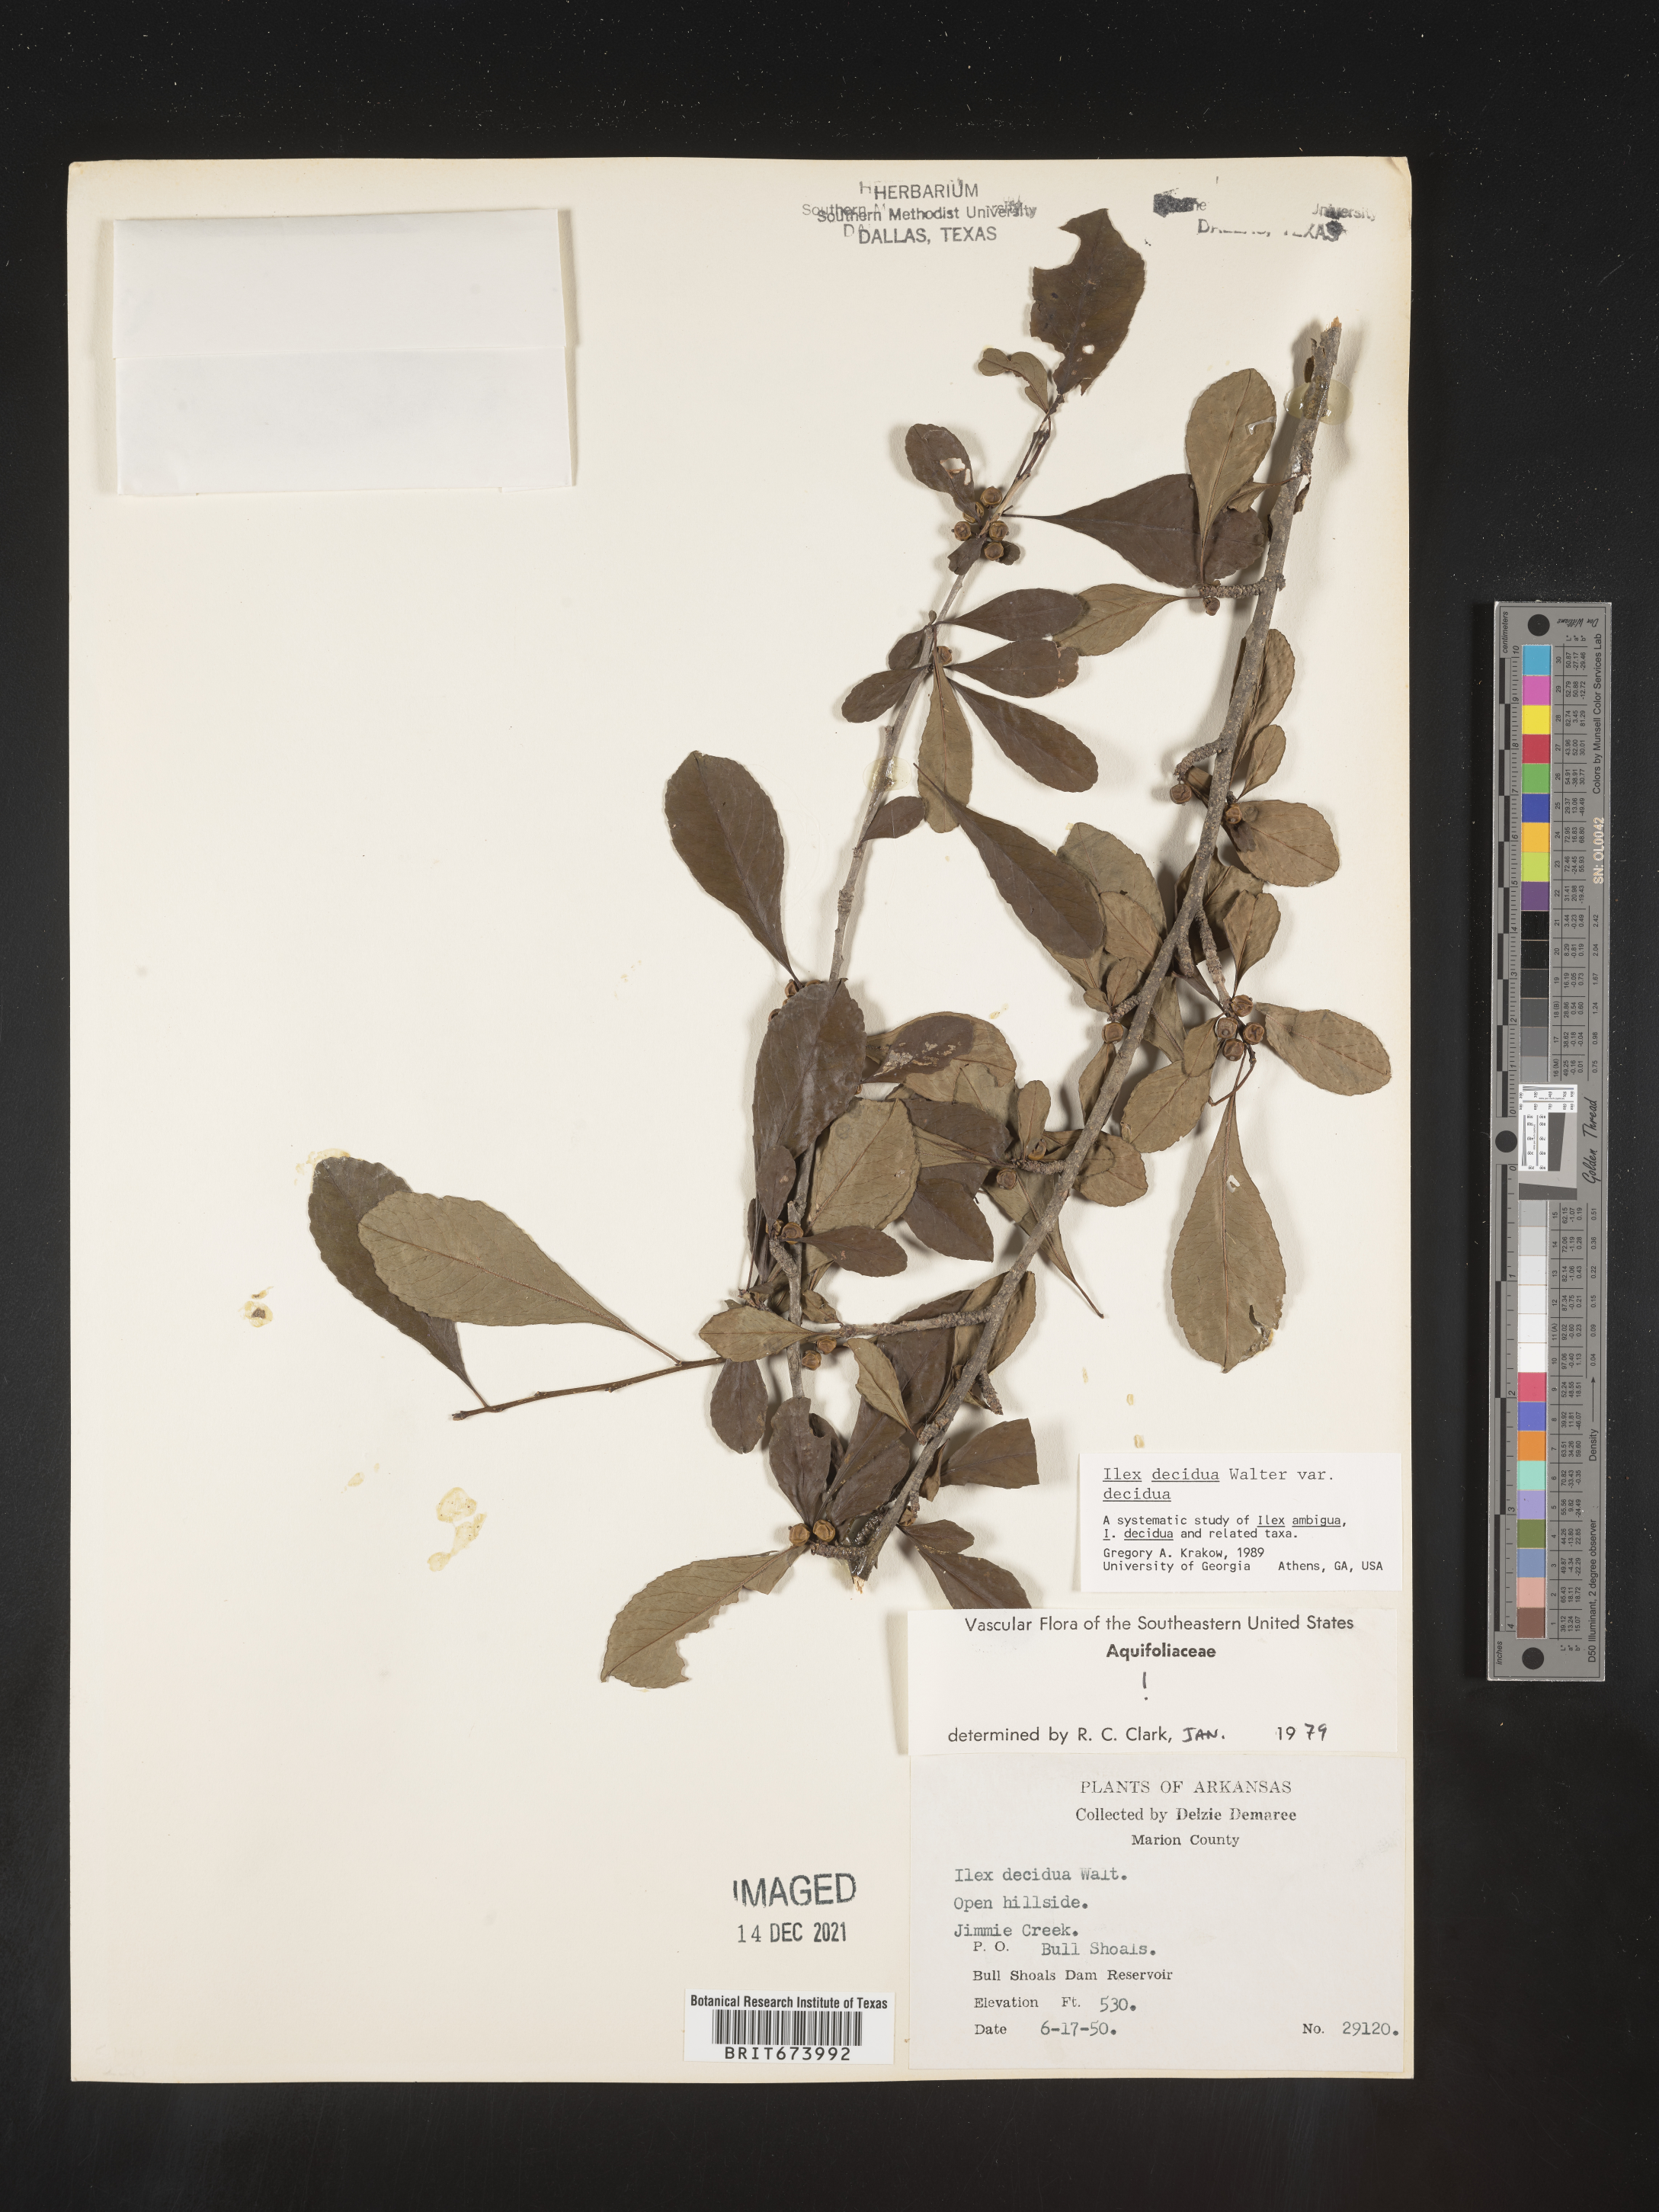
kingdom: Plantae
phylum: Tracheophyta
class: Magnoliopsida
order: Aquifoliales
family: Aquifoliaceae
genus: Ilex
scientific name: Ilex decidua
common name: Possum-haw
